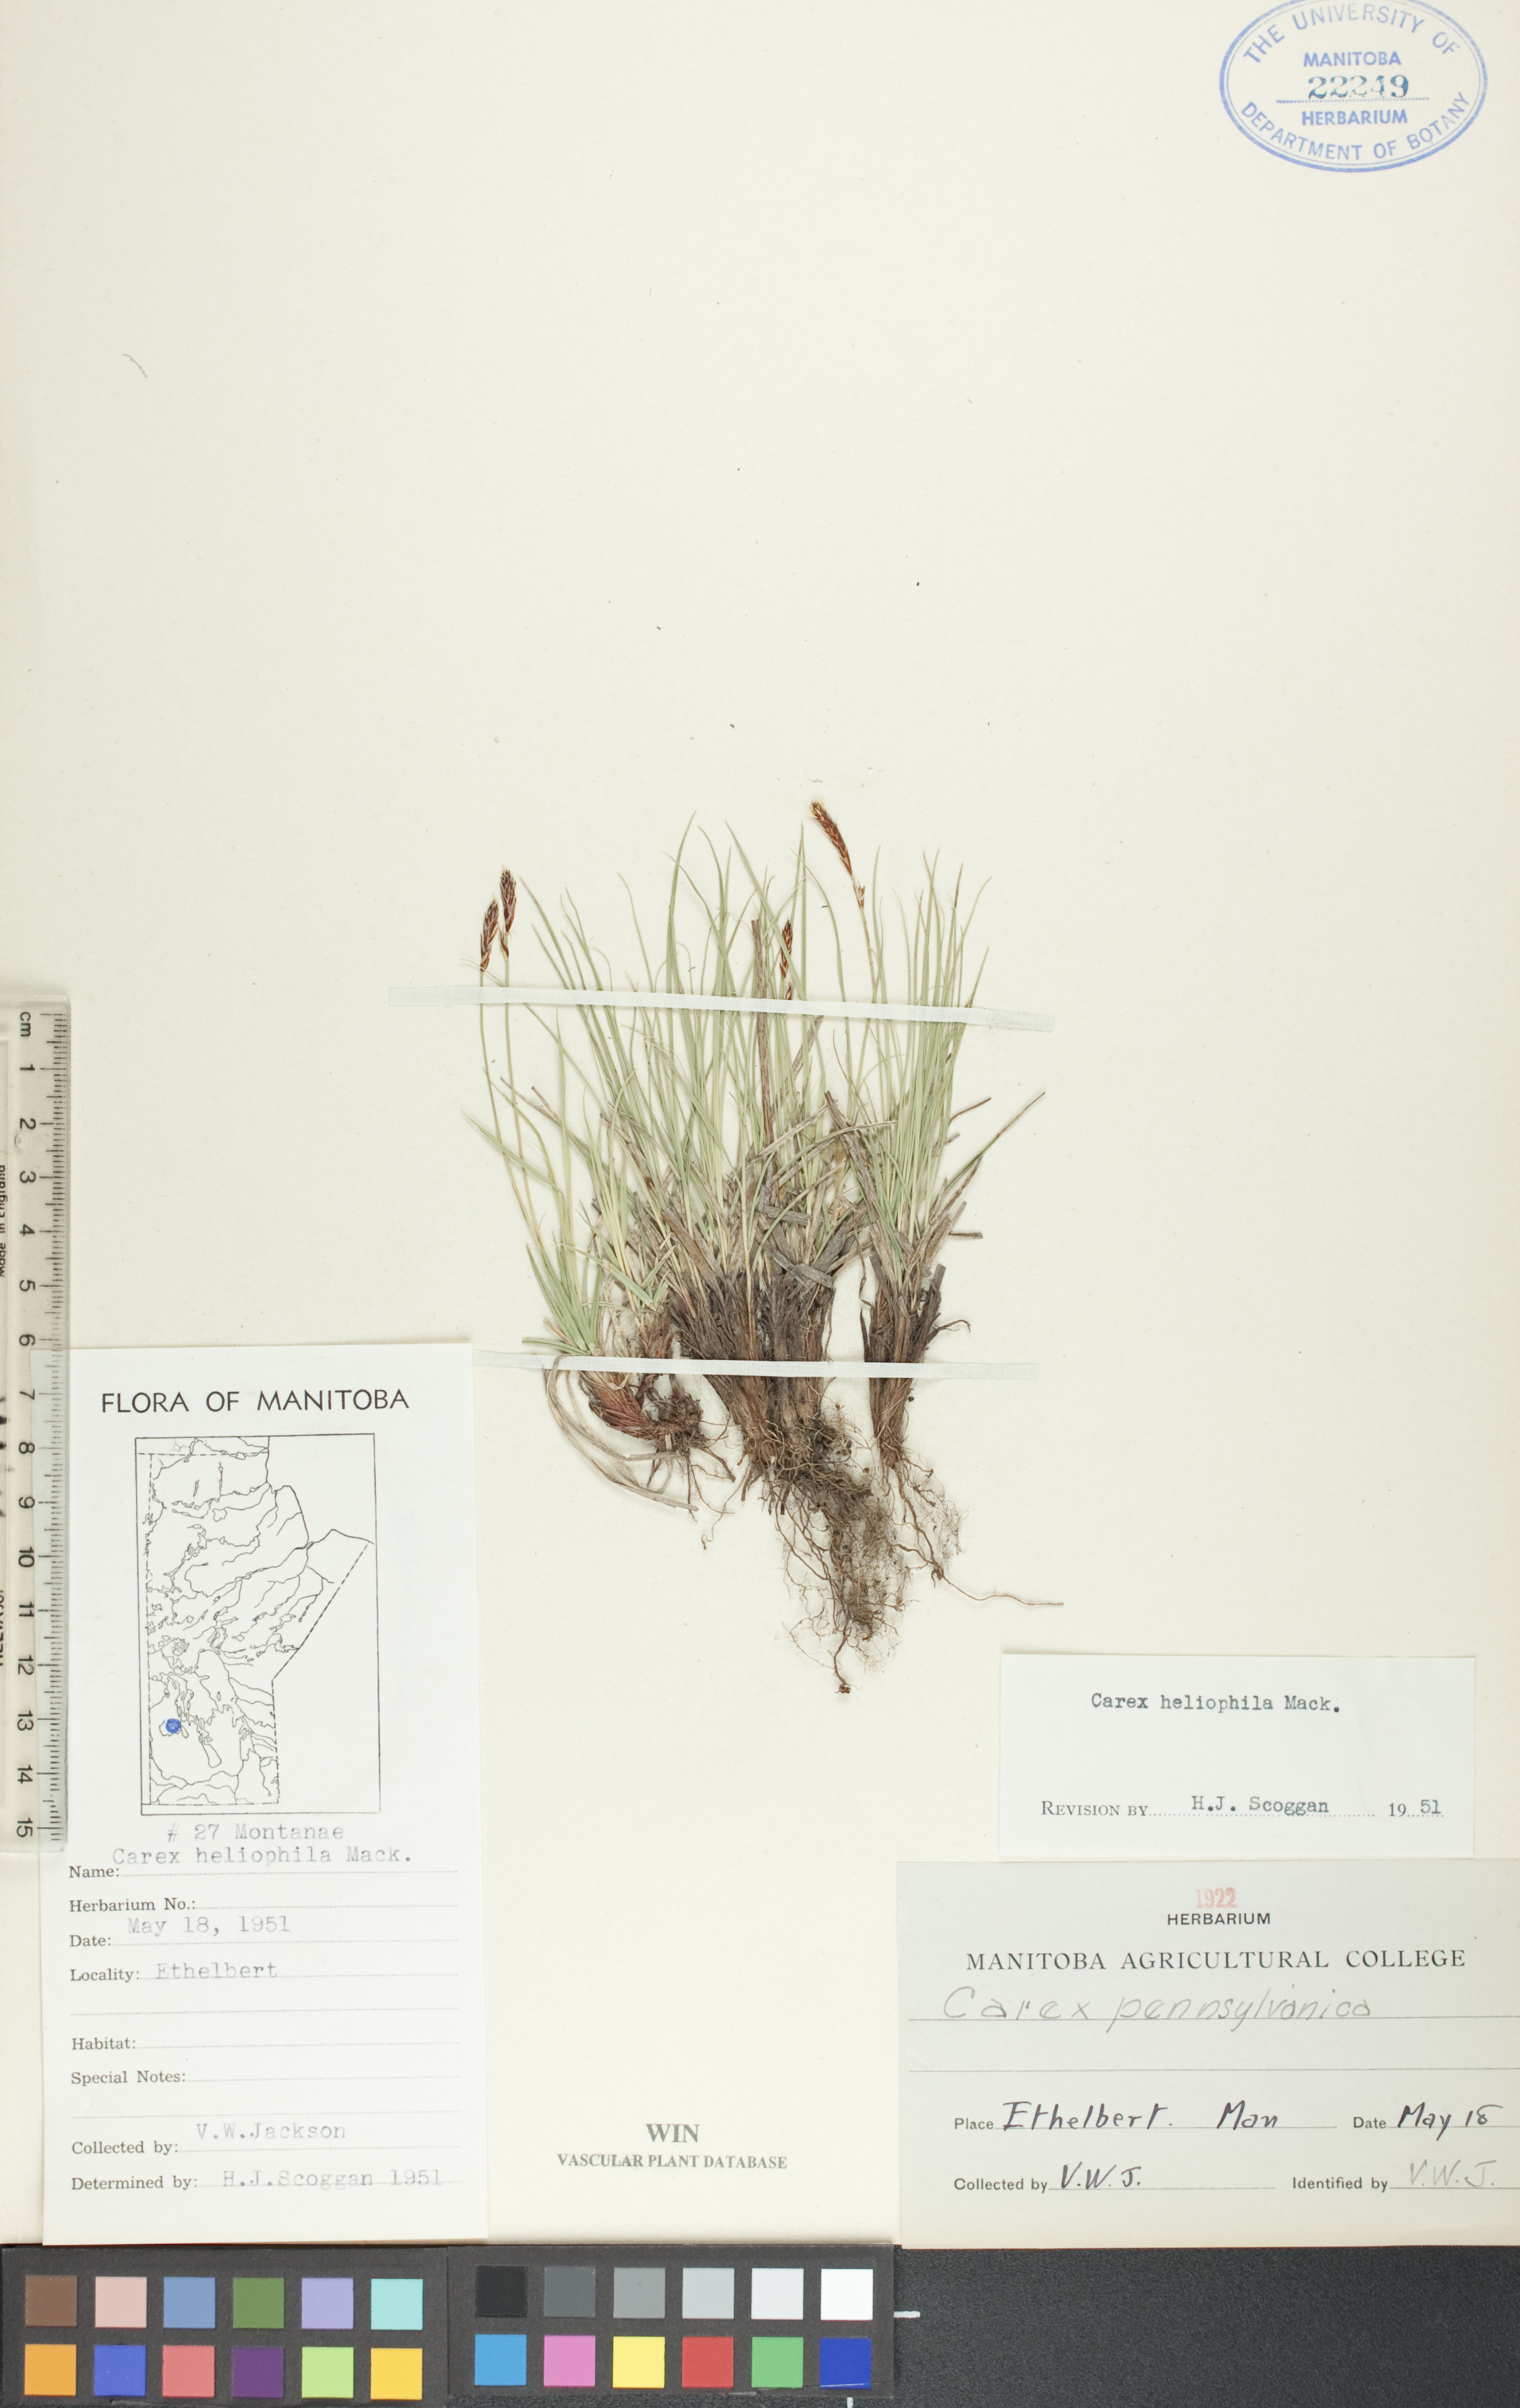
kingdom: Plantae
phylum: Tracheophyta
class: Liliopsida
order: Poales
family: Cyperaceae
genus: Carex
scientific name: Carex inops
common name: Long-stolon sedge
